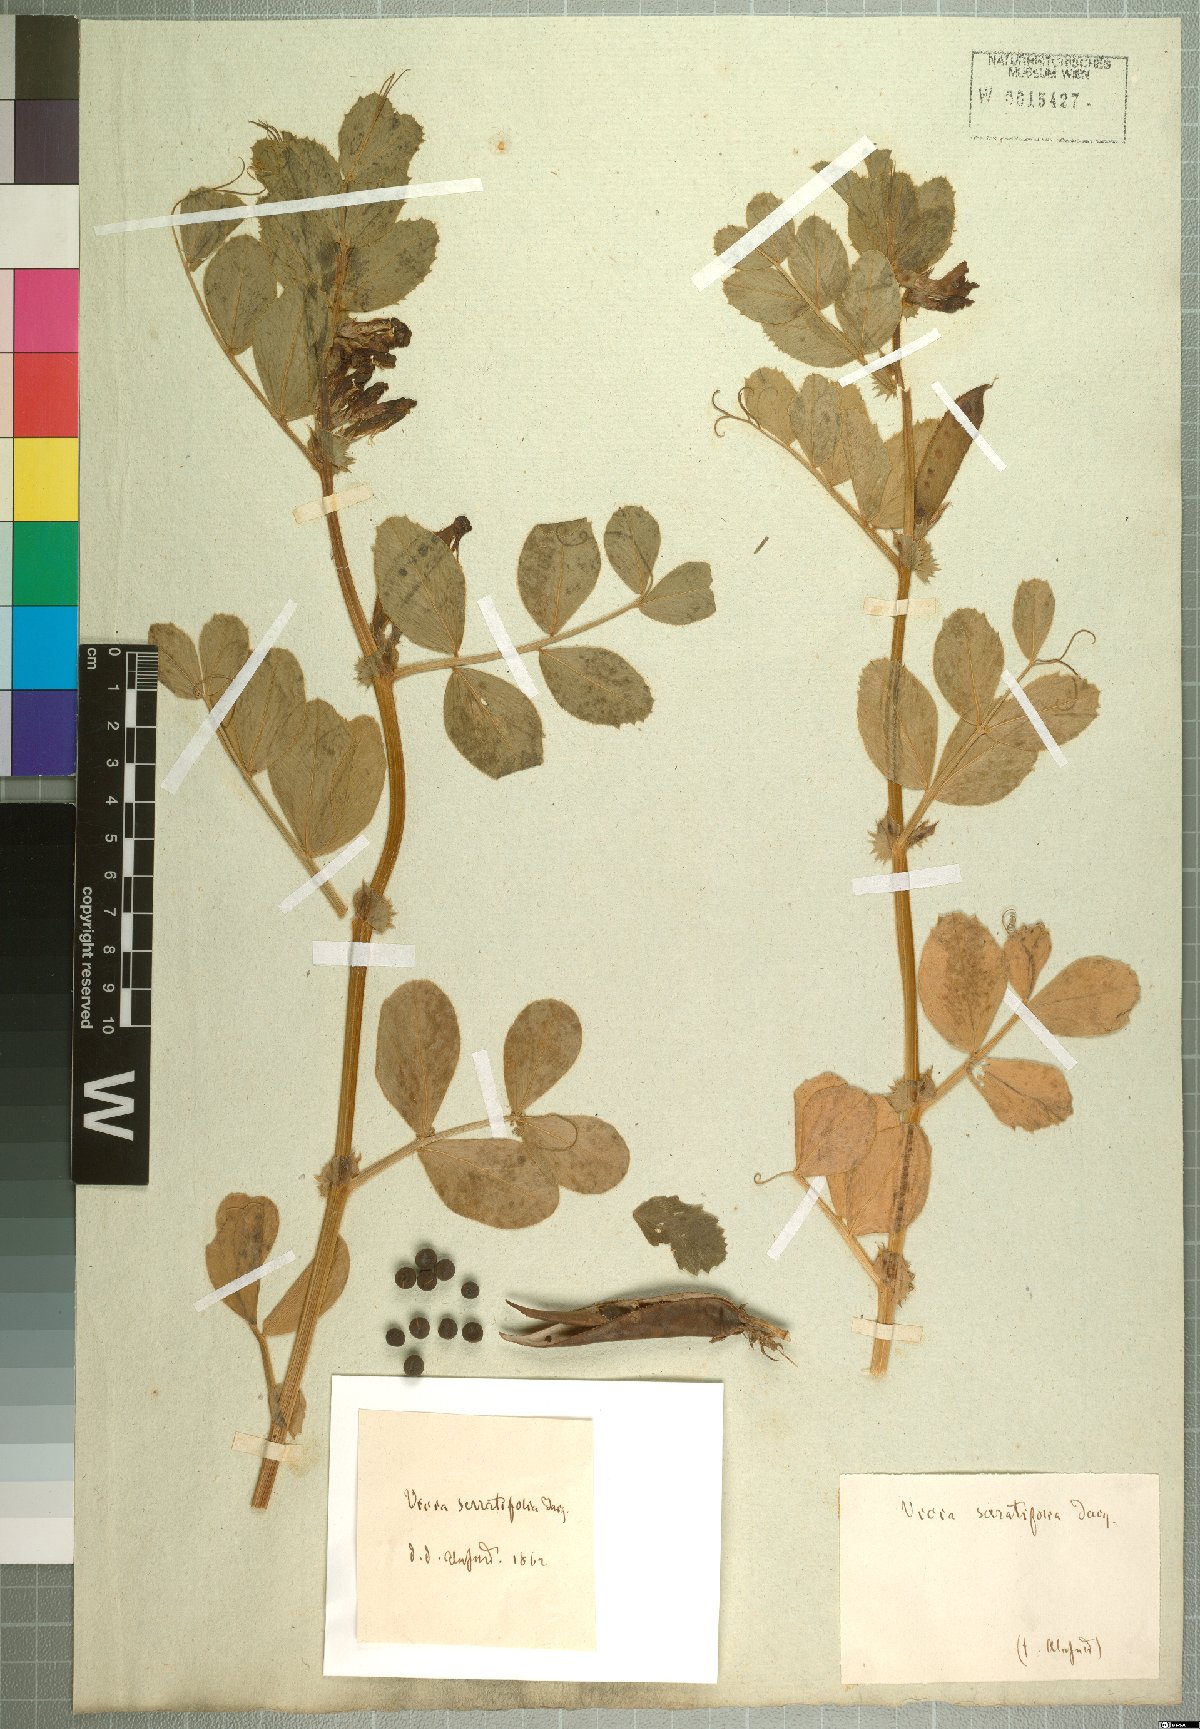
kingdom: Plantae
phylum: Tracheophyta
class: Magnoliopsida
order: Fabales
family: Fabaceae
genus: Vicia
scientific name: Vicia serratifolia
